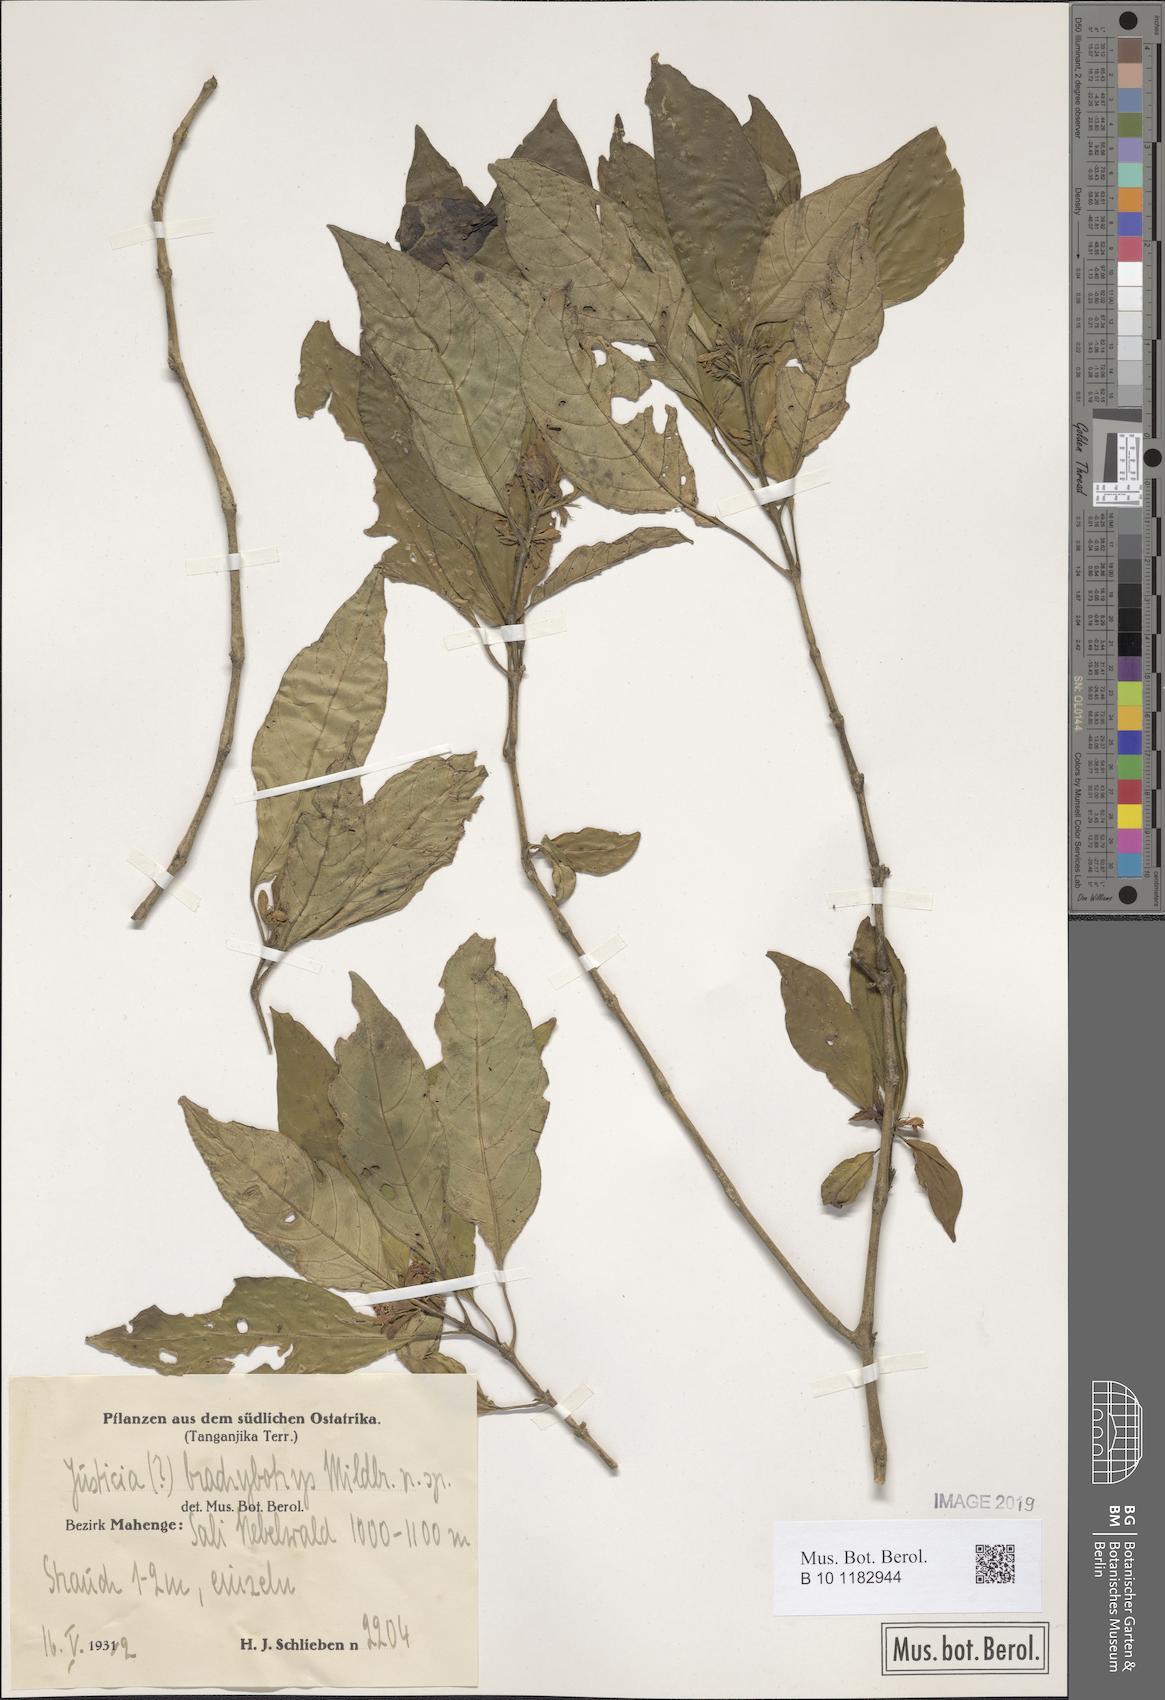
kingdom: Plantae
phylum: Tracheophyta
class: Magnoliopsida
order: Lamiales
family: Acanthaceae
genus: Justicia
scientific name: Justicia
